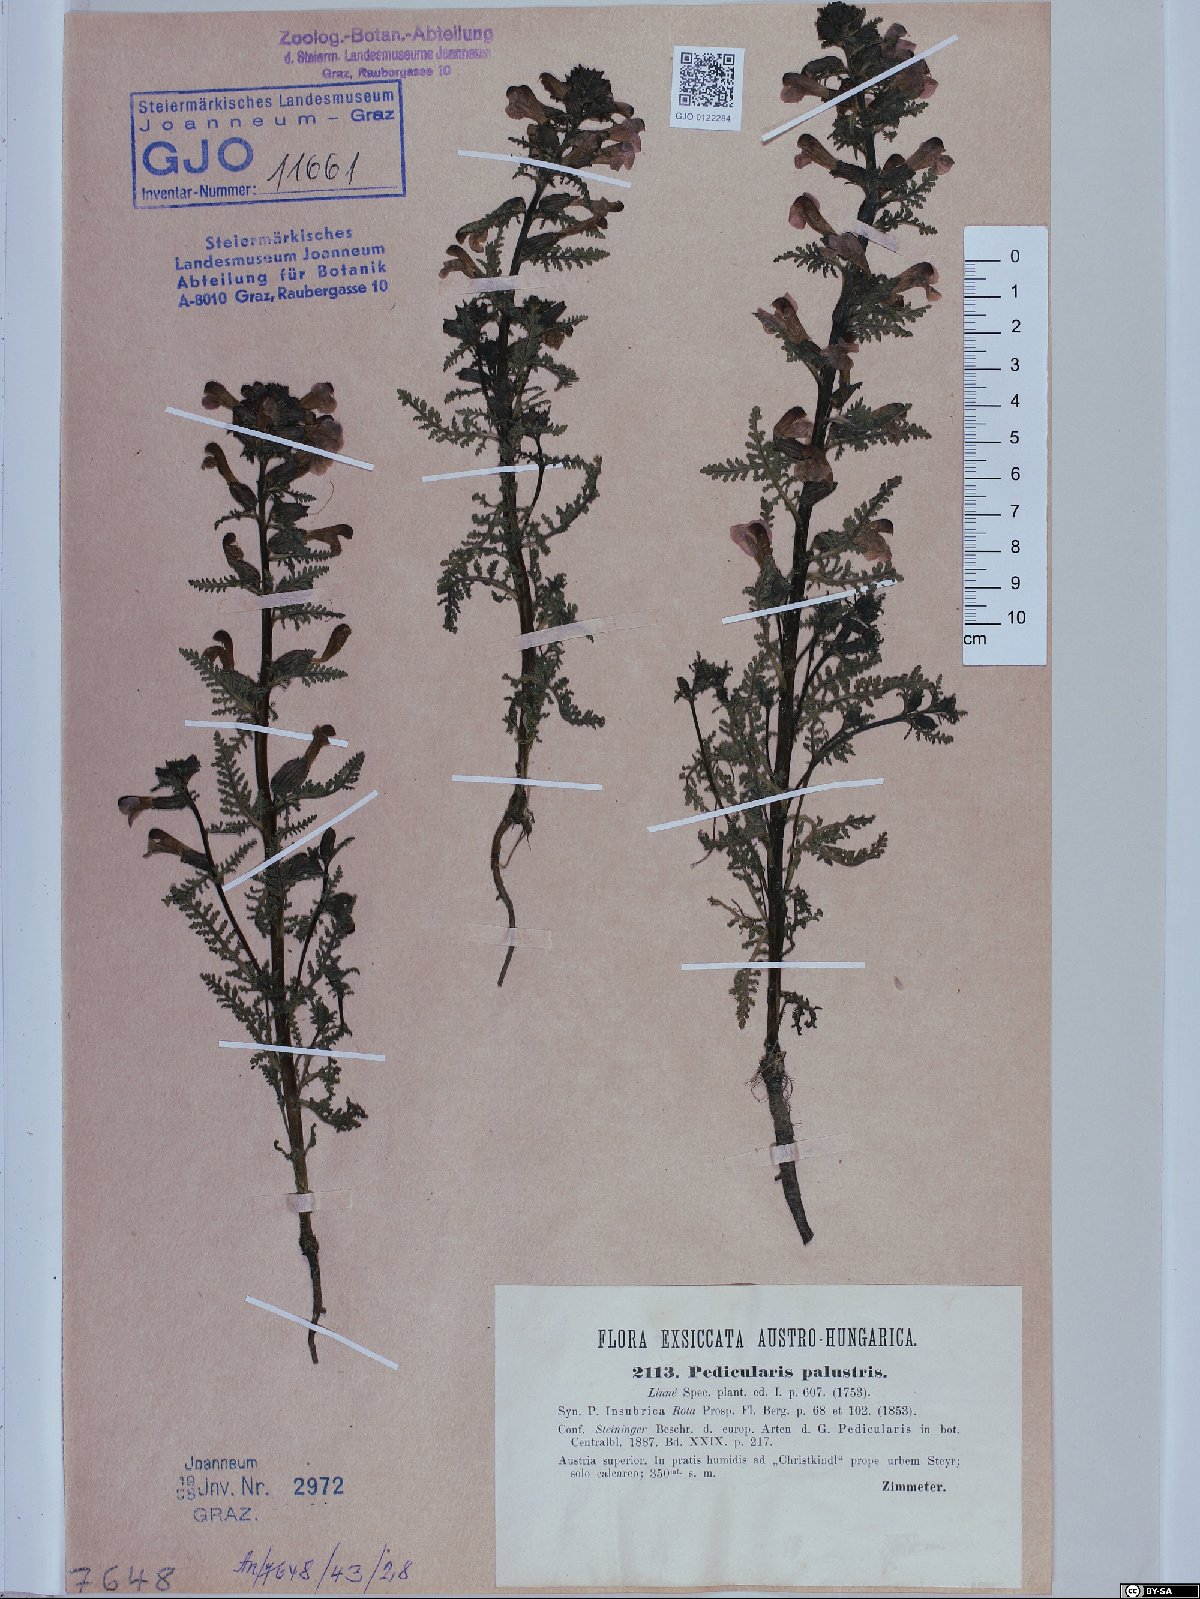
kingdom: Plantae
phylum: Tracheophyta
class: Magnoliopsida
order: Lamiales
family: Orobanchaceae
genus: Pedicularis
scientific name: Pedicularis palustris
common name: Marsh lousewort
